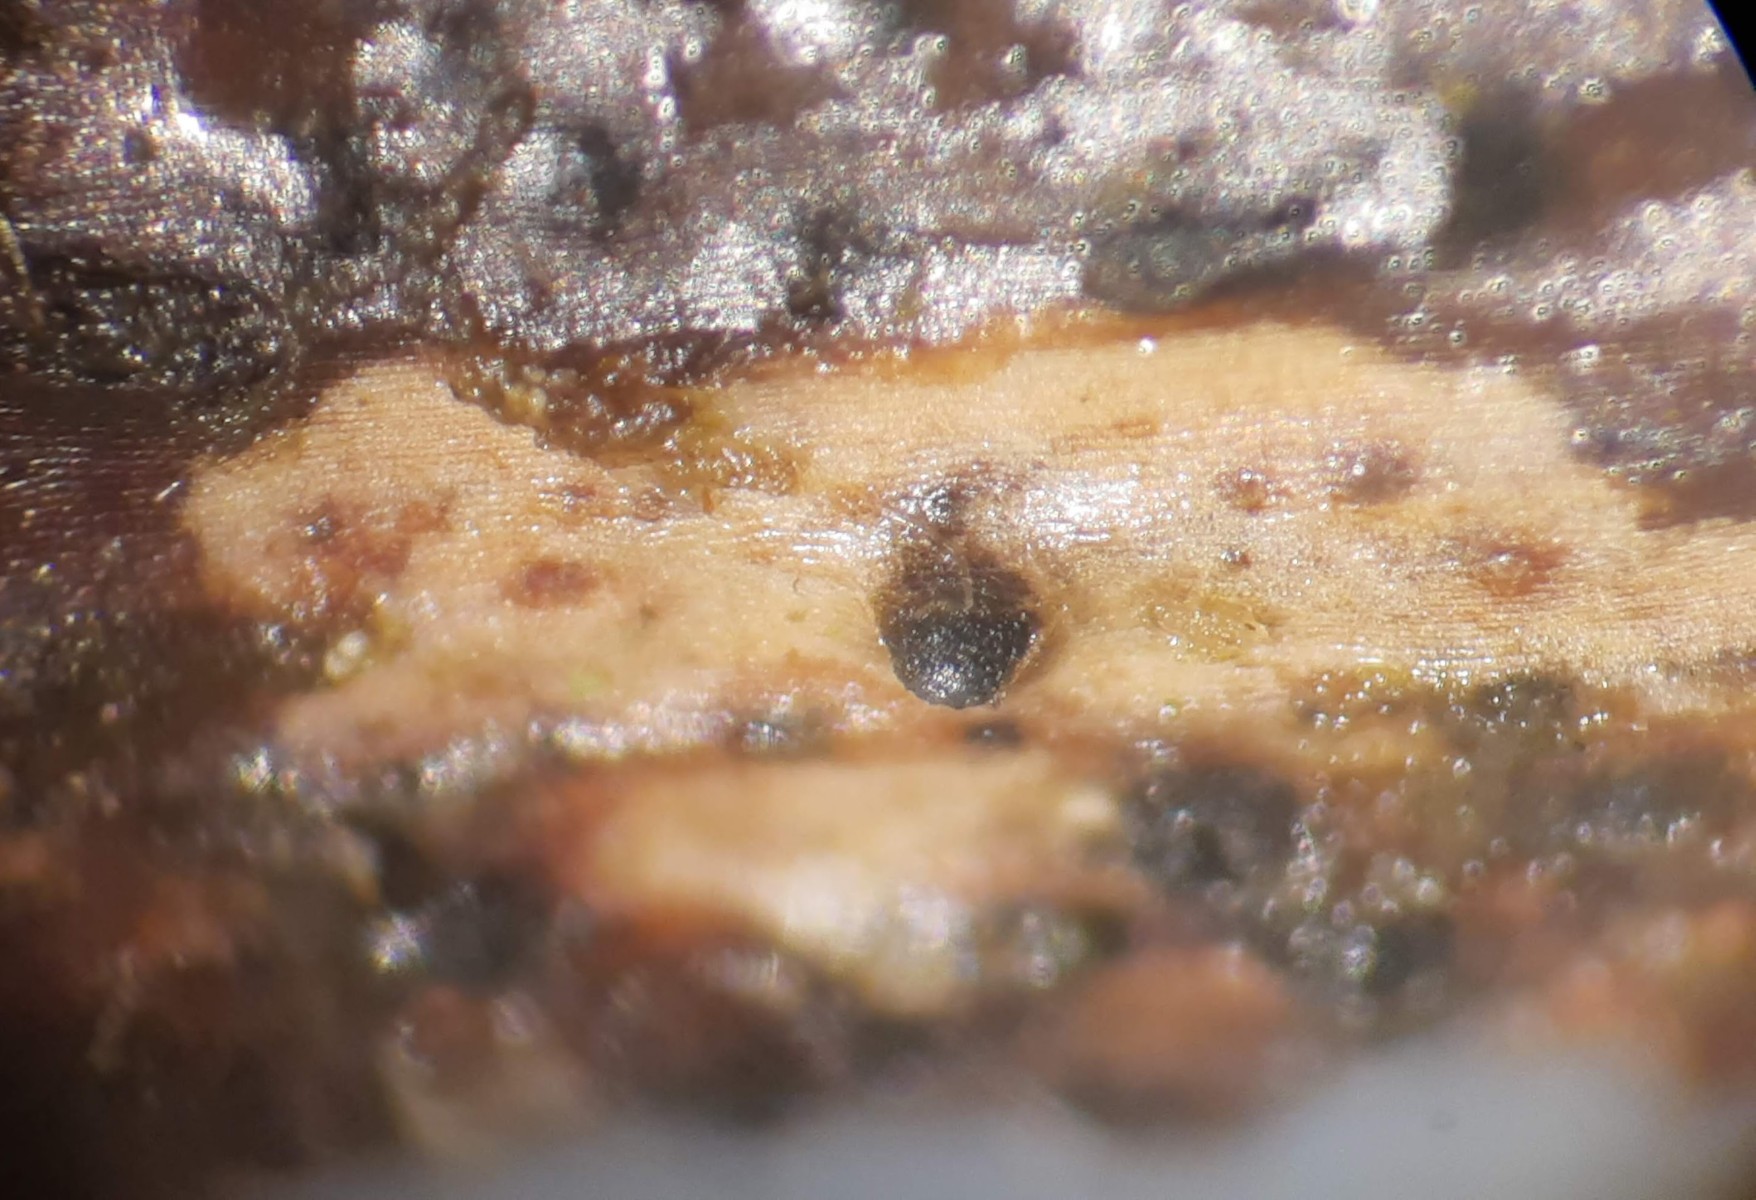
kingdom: Fungi
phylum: Ascomycota
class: Lecanoromycetes
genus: Trullula
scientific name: Trullula melanochlora
